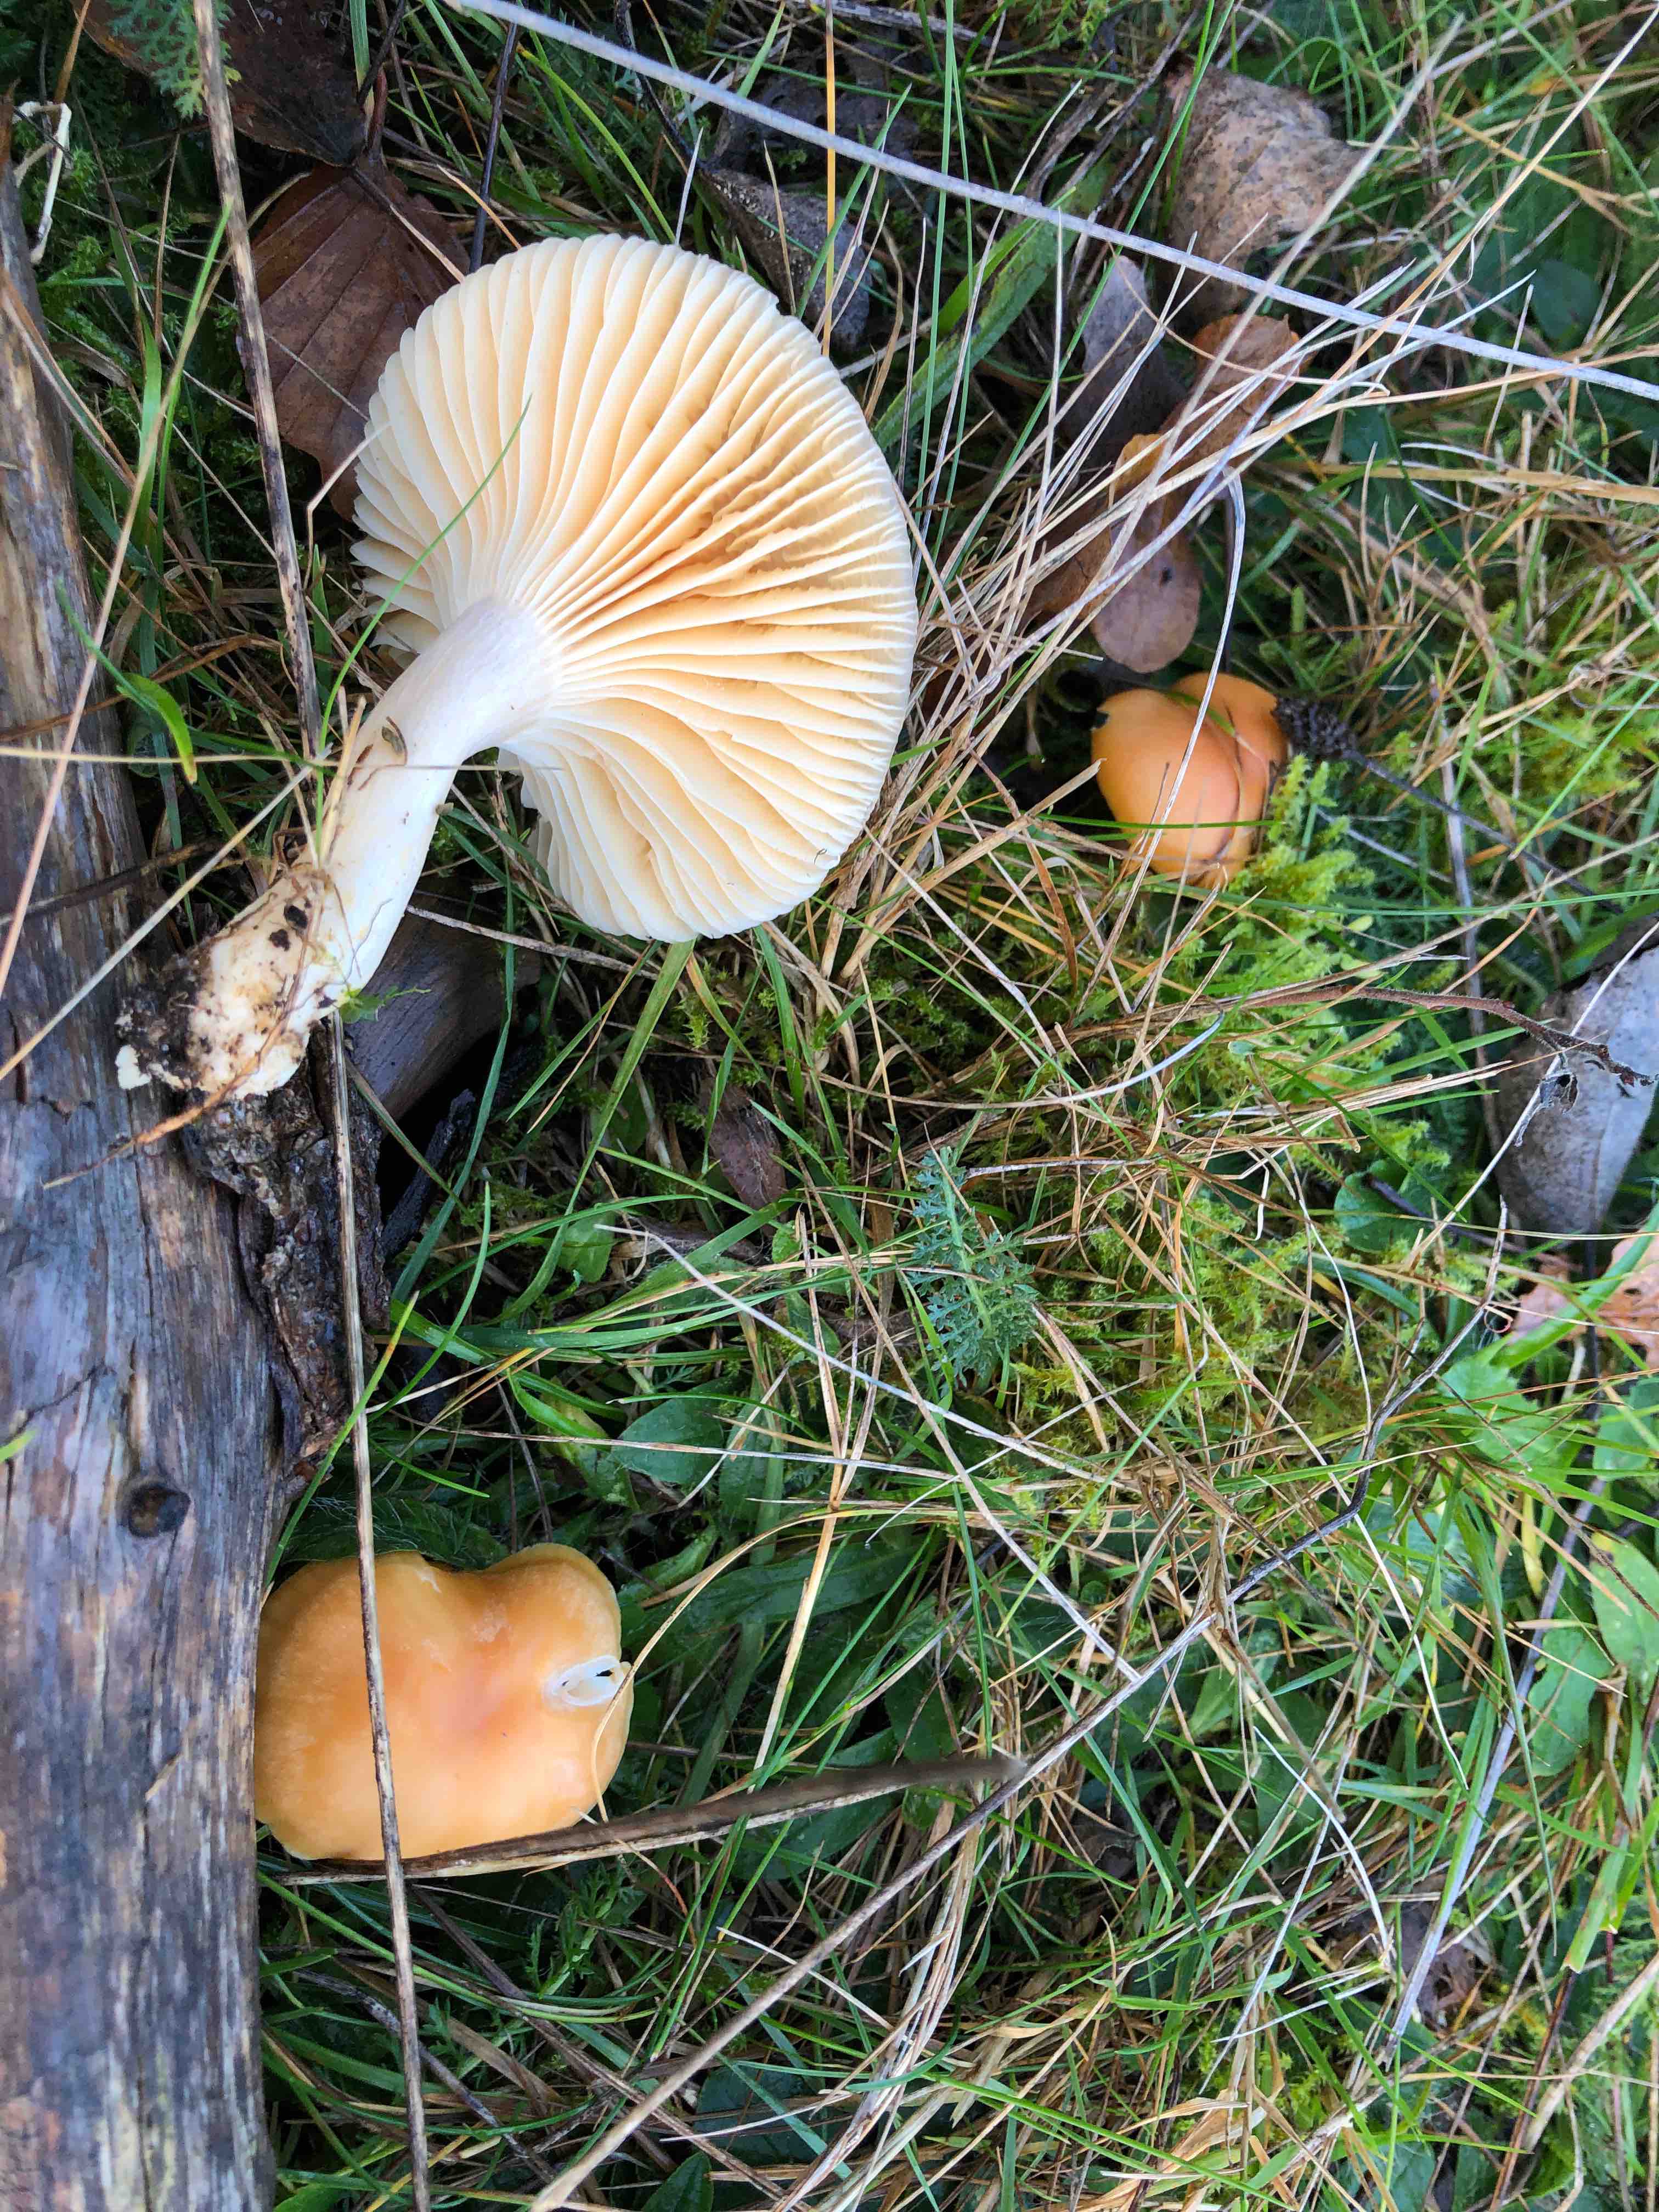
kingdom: Fungi
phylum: Basidiomycota
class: Agaricomycetes
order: Agaricales
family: Hygrophoraceae
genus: Cuphophyllus
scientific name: Cuphophyllus pratensis
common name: eng-vokshat
